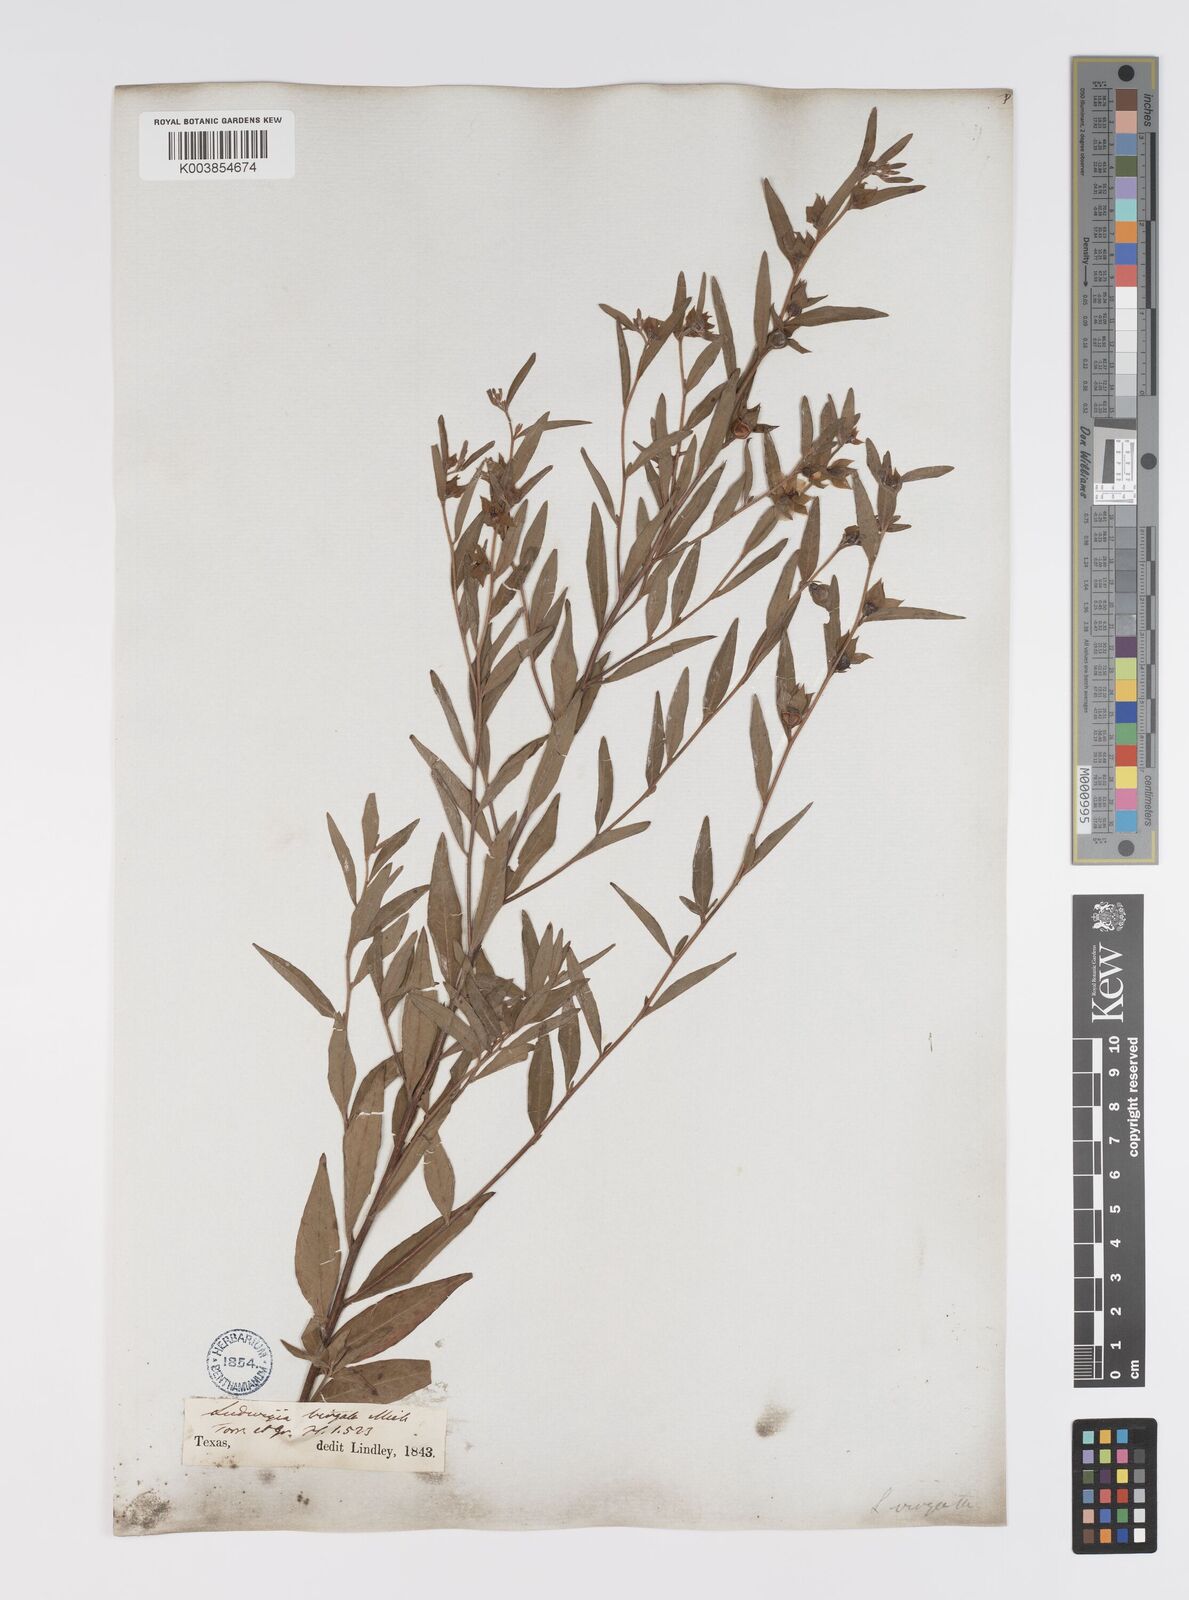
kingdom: Plantae
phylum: Tracheophyta
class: Magnoliopsida
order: Myrtales
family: Onagraceae
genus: Ludwigia
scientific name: Ludwigia virgata
